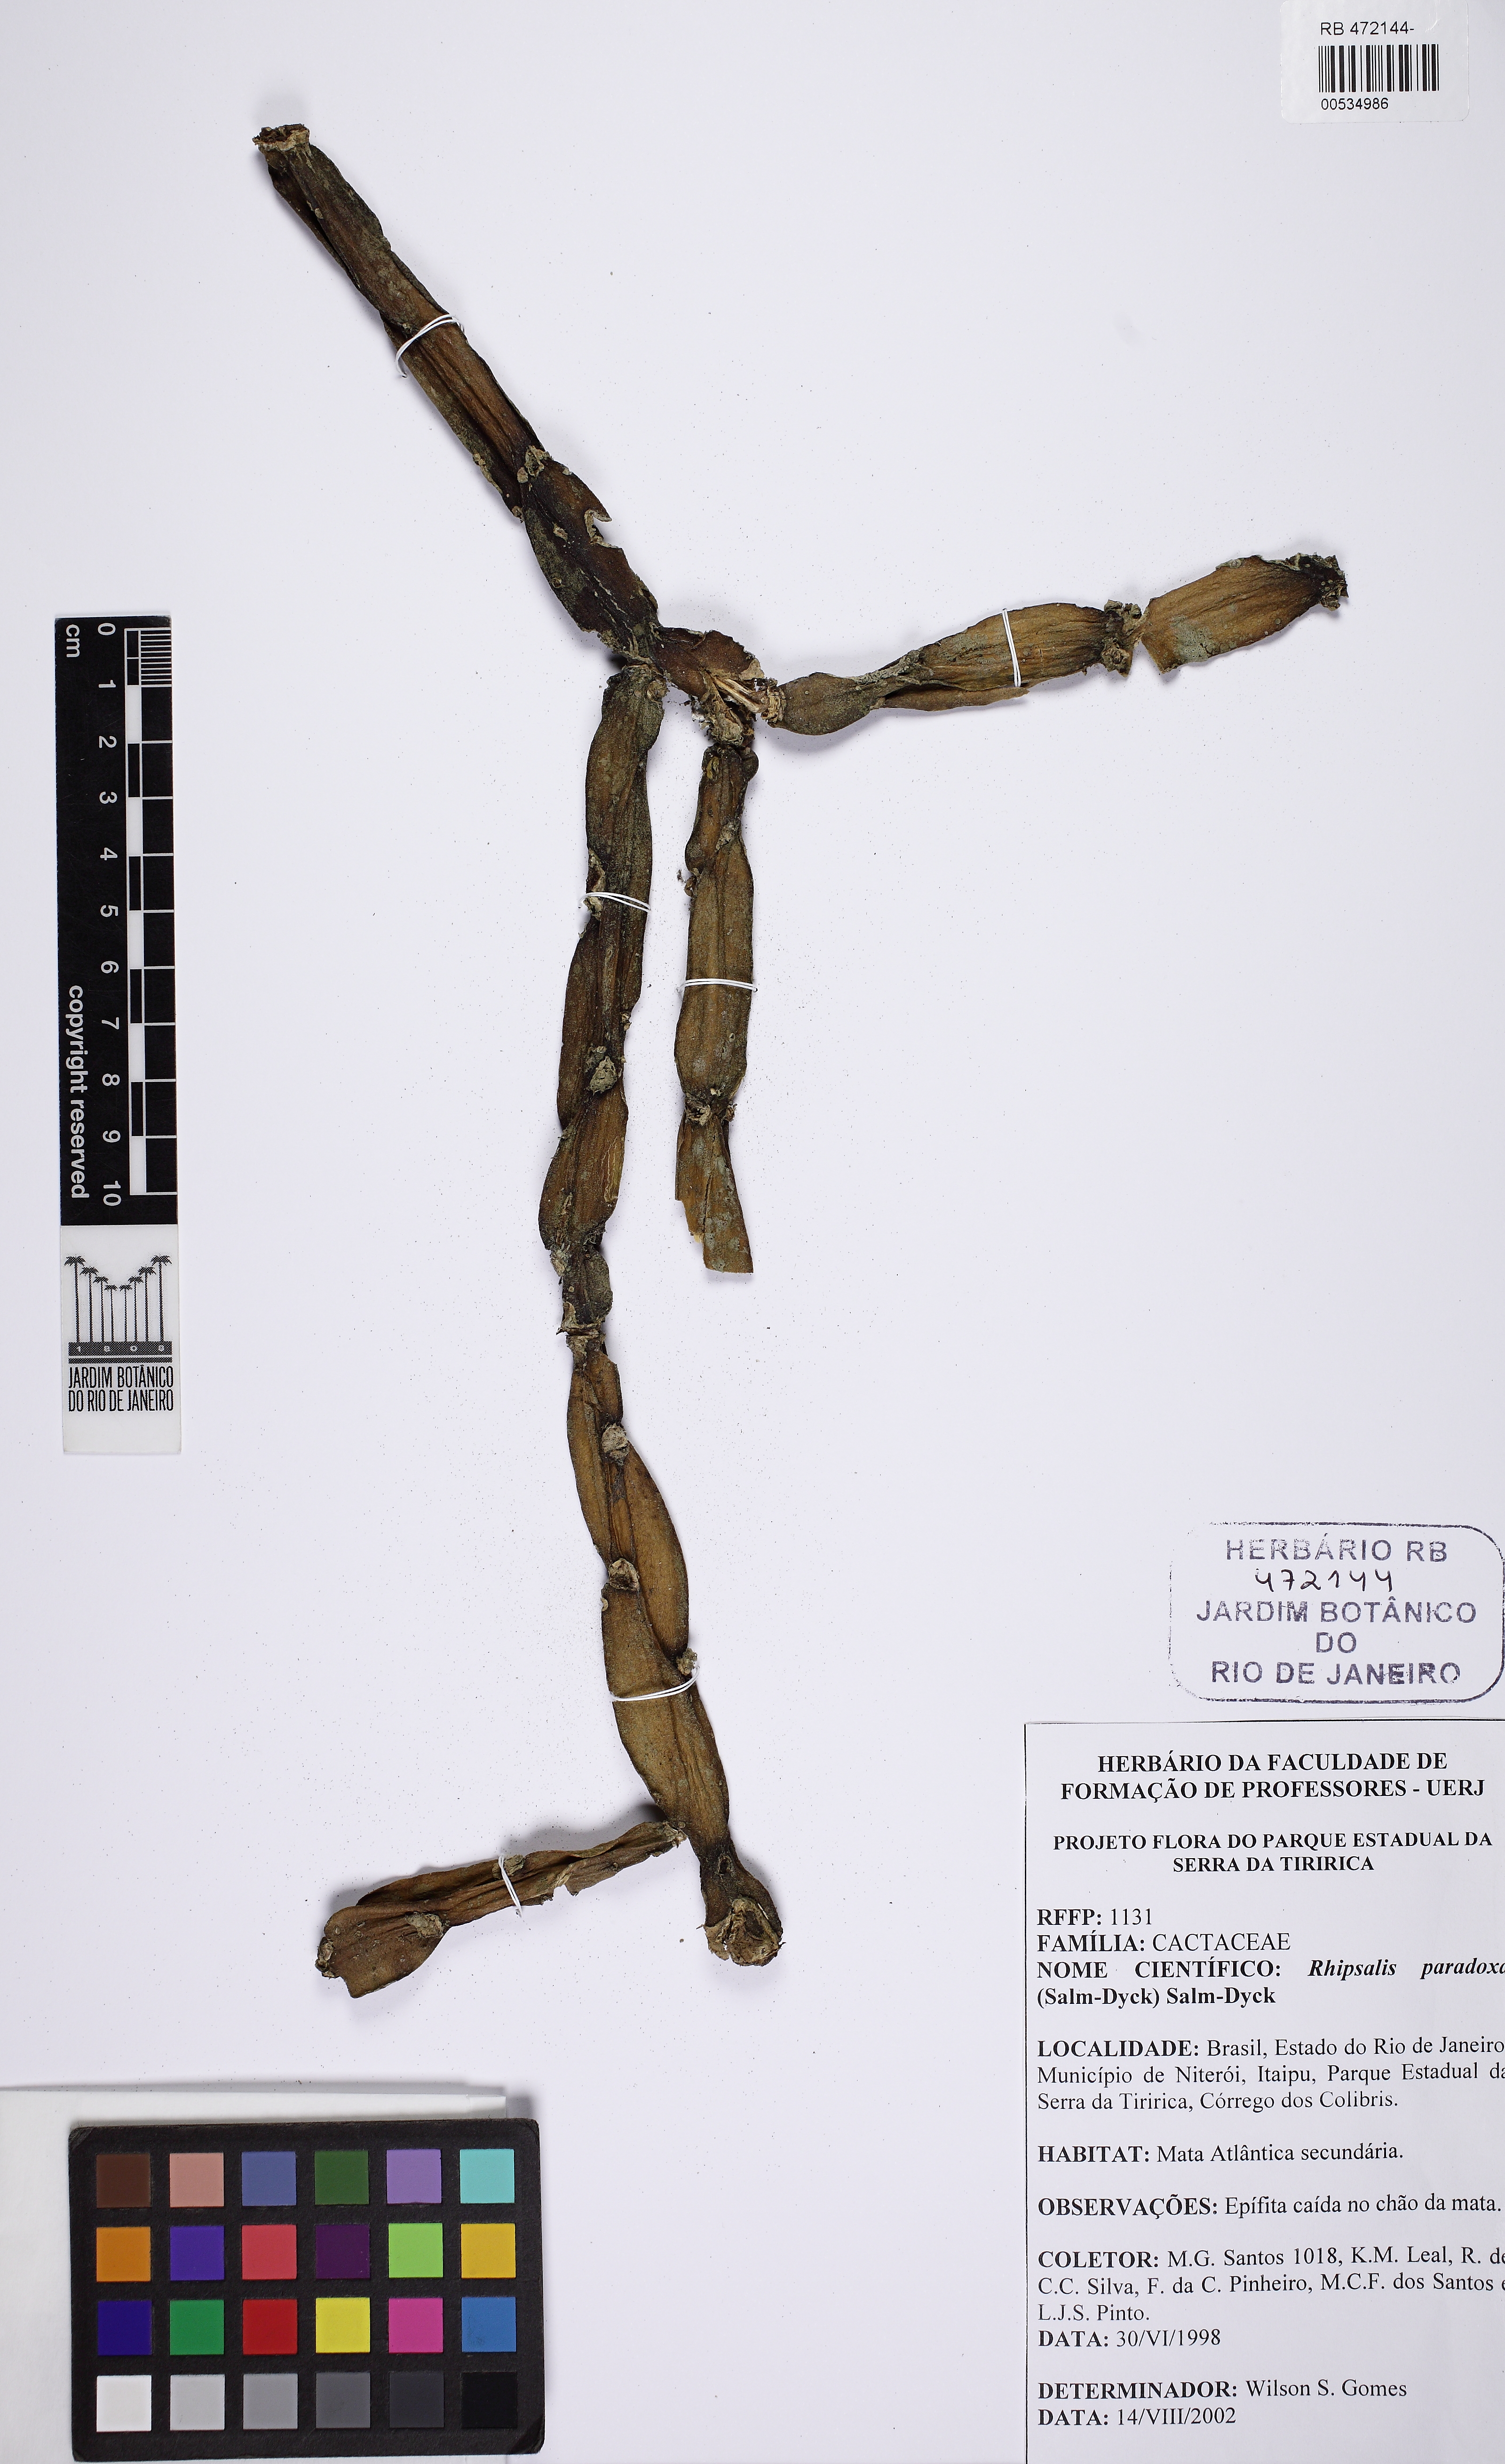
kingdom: Plantae
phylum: Tracheophyta
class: Magnoliopsida
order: Caryophyllales
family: Cactaceae
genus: Rhipsalis
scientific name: Rhipsalis paradoxa
